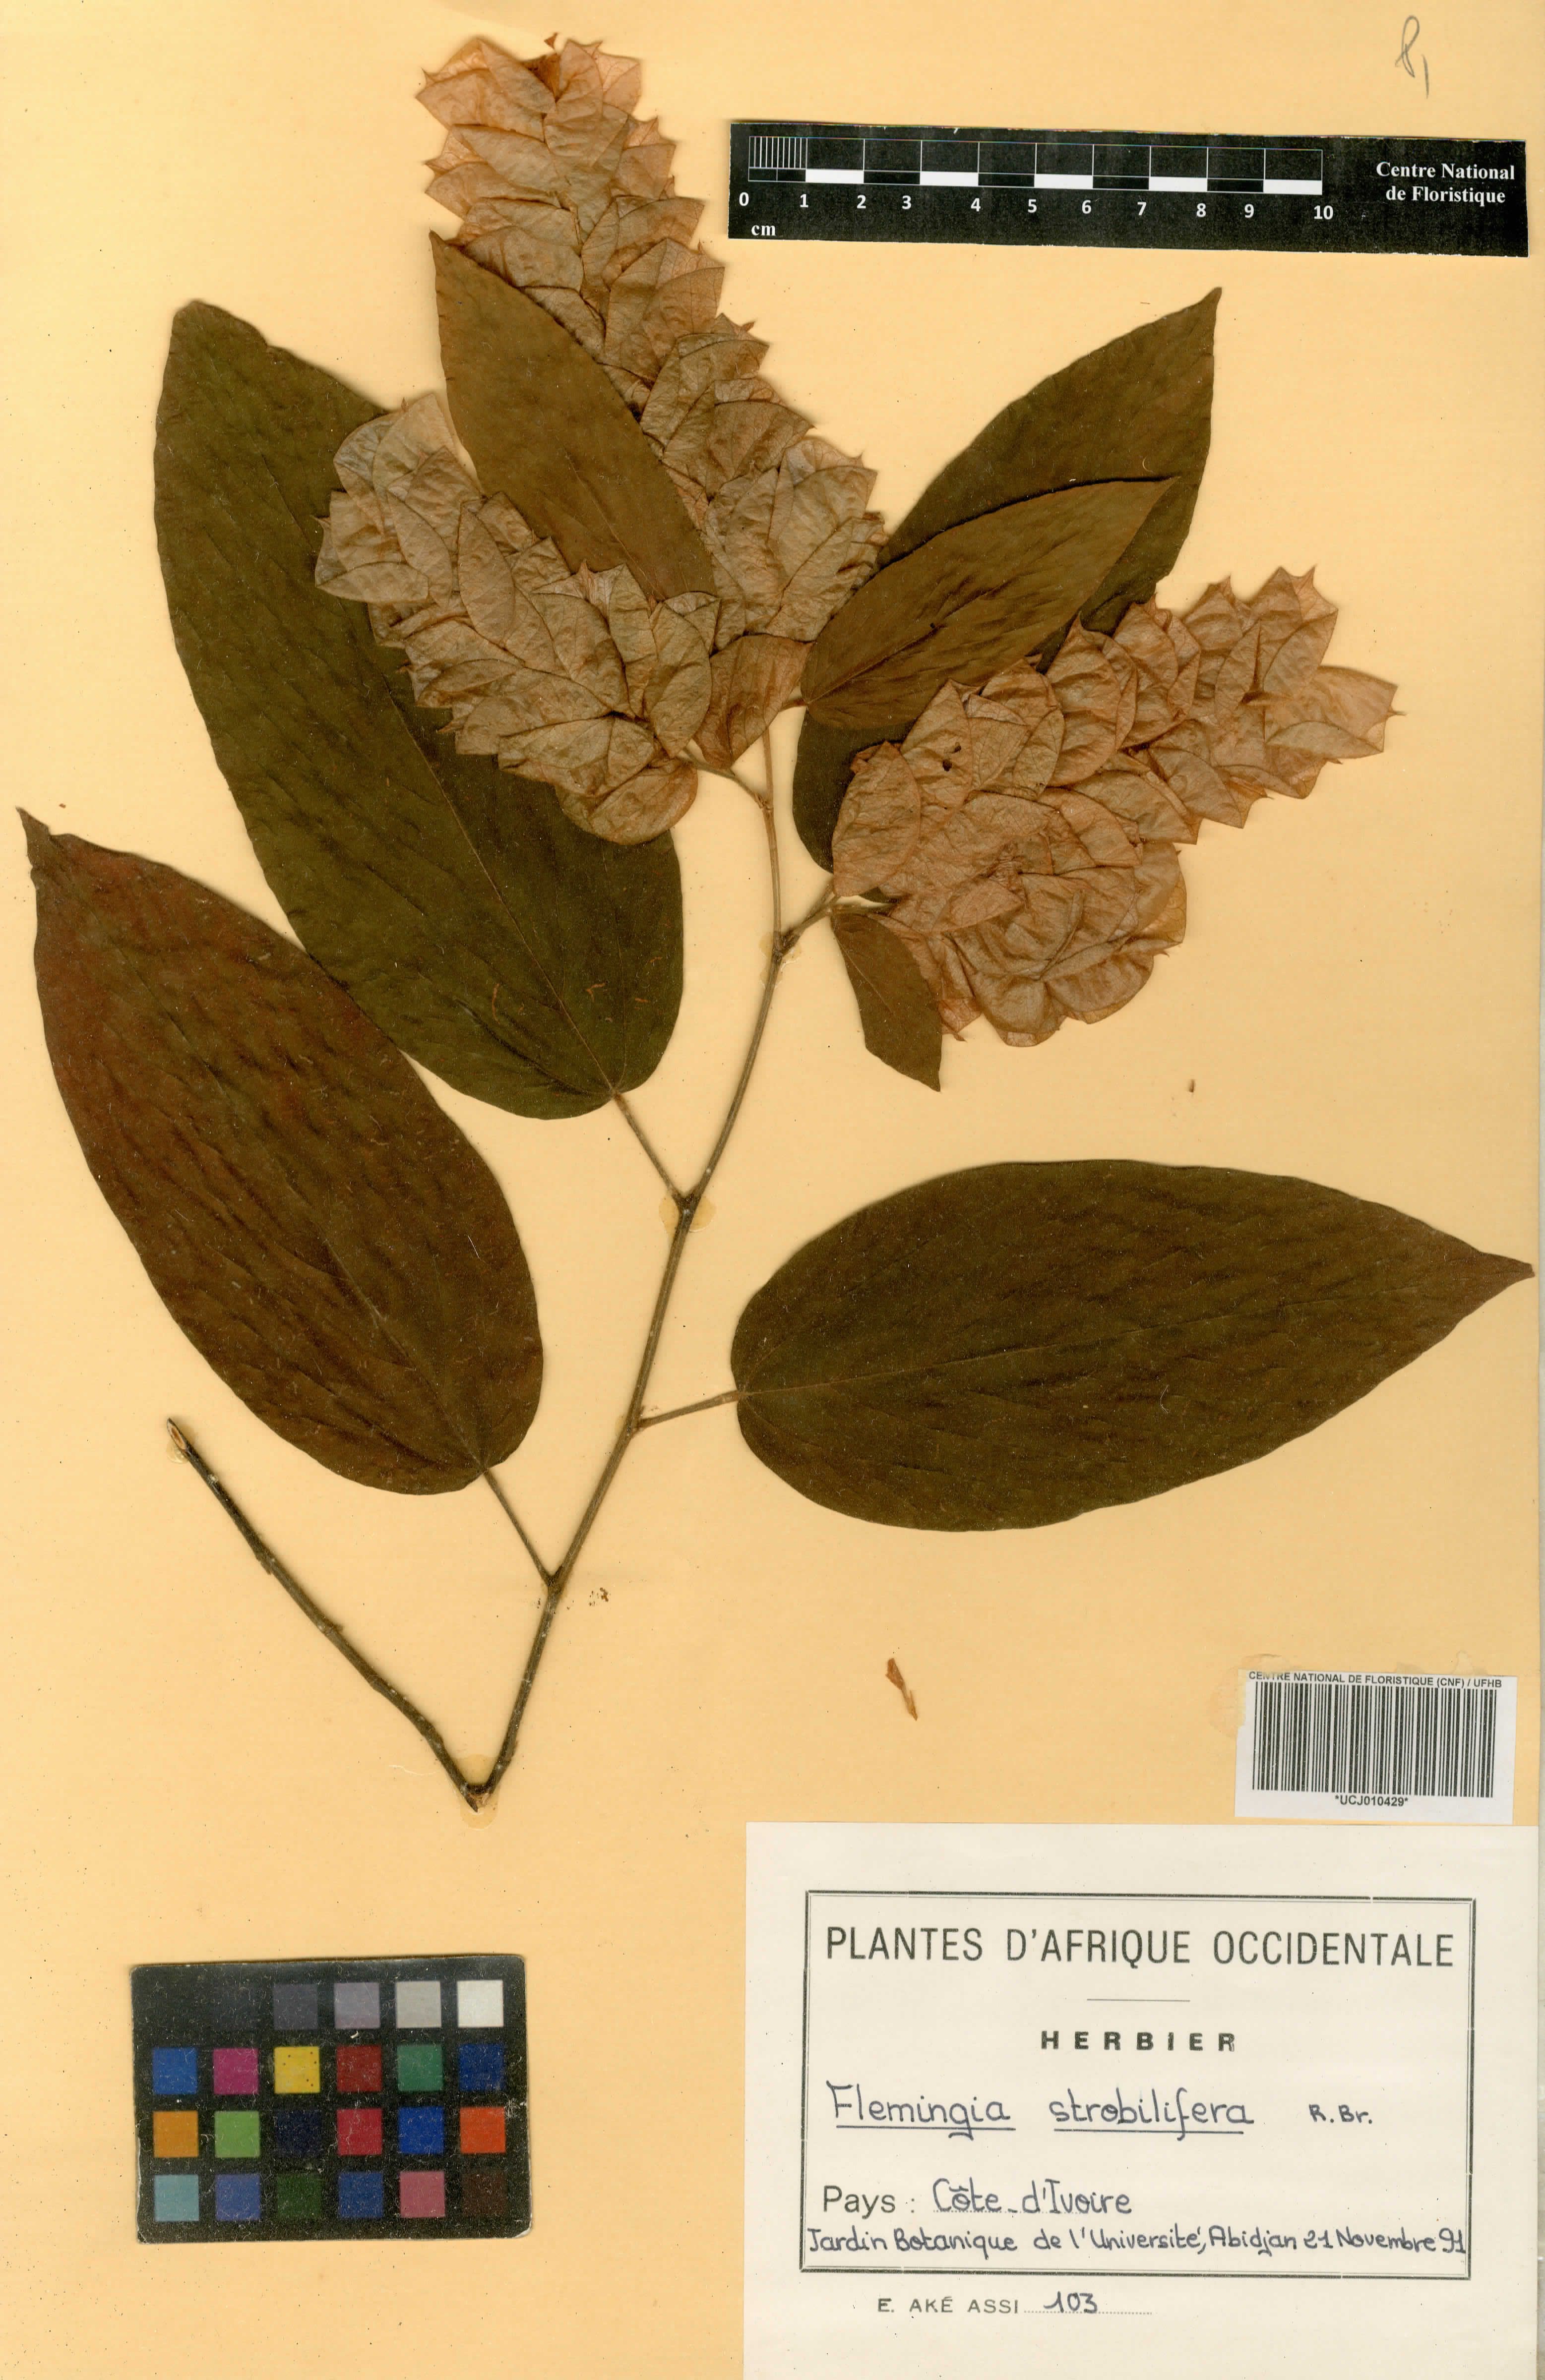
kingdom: Plantae
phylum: Tracheophyta
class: Magnoliopsida
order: Fabales
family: Fabaceae
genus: Flemingia
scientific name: Flemingia strobilifera
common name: Wild hops
